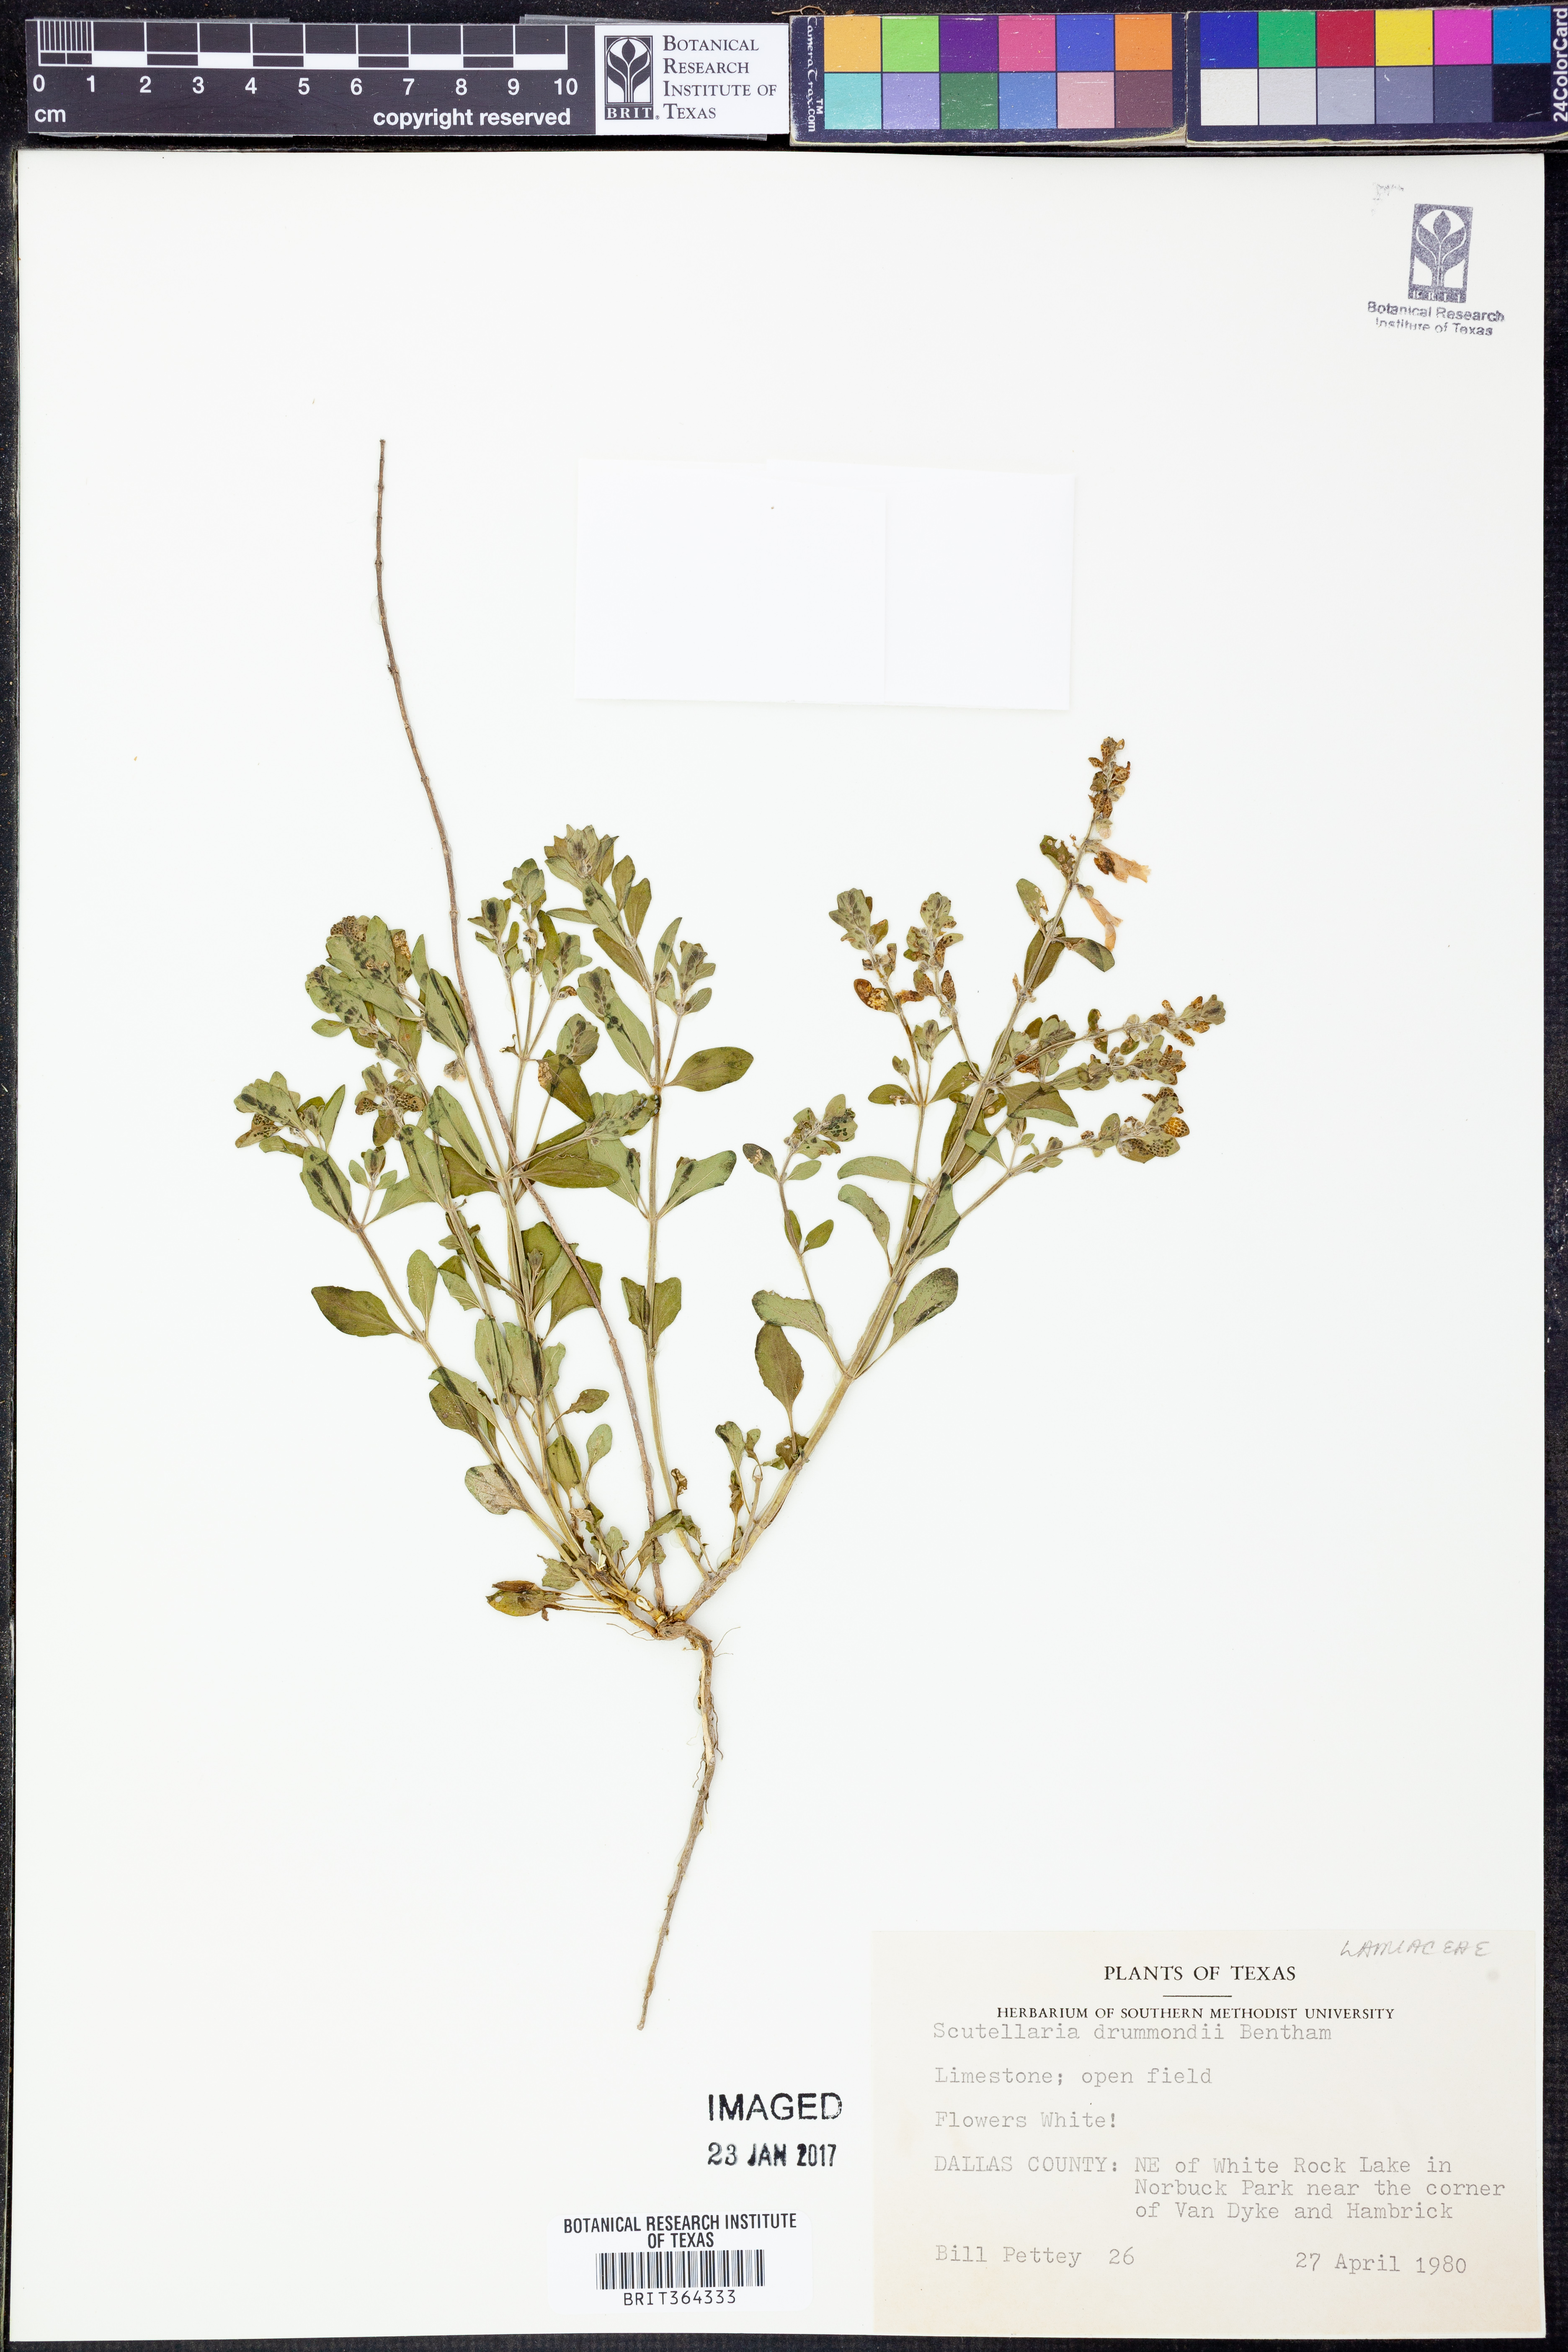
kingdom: Plantae
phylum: Tracheophyta
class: Magnoliopsida
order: Lamiales
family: Lamiaceae
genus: Scutellaria
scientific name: Scutellaria drummondii
